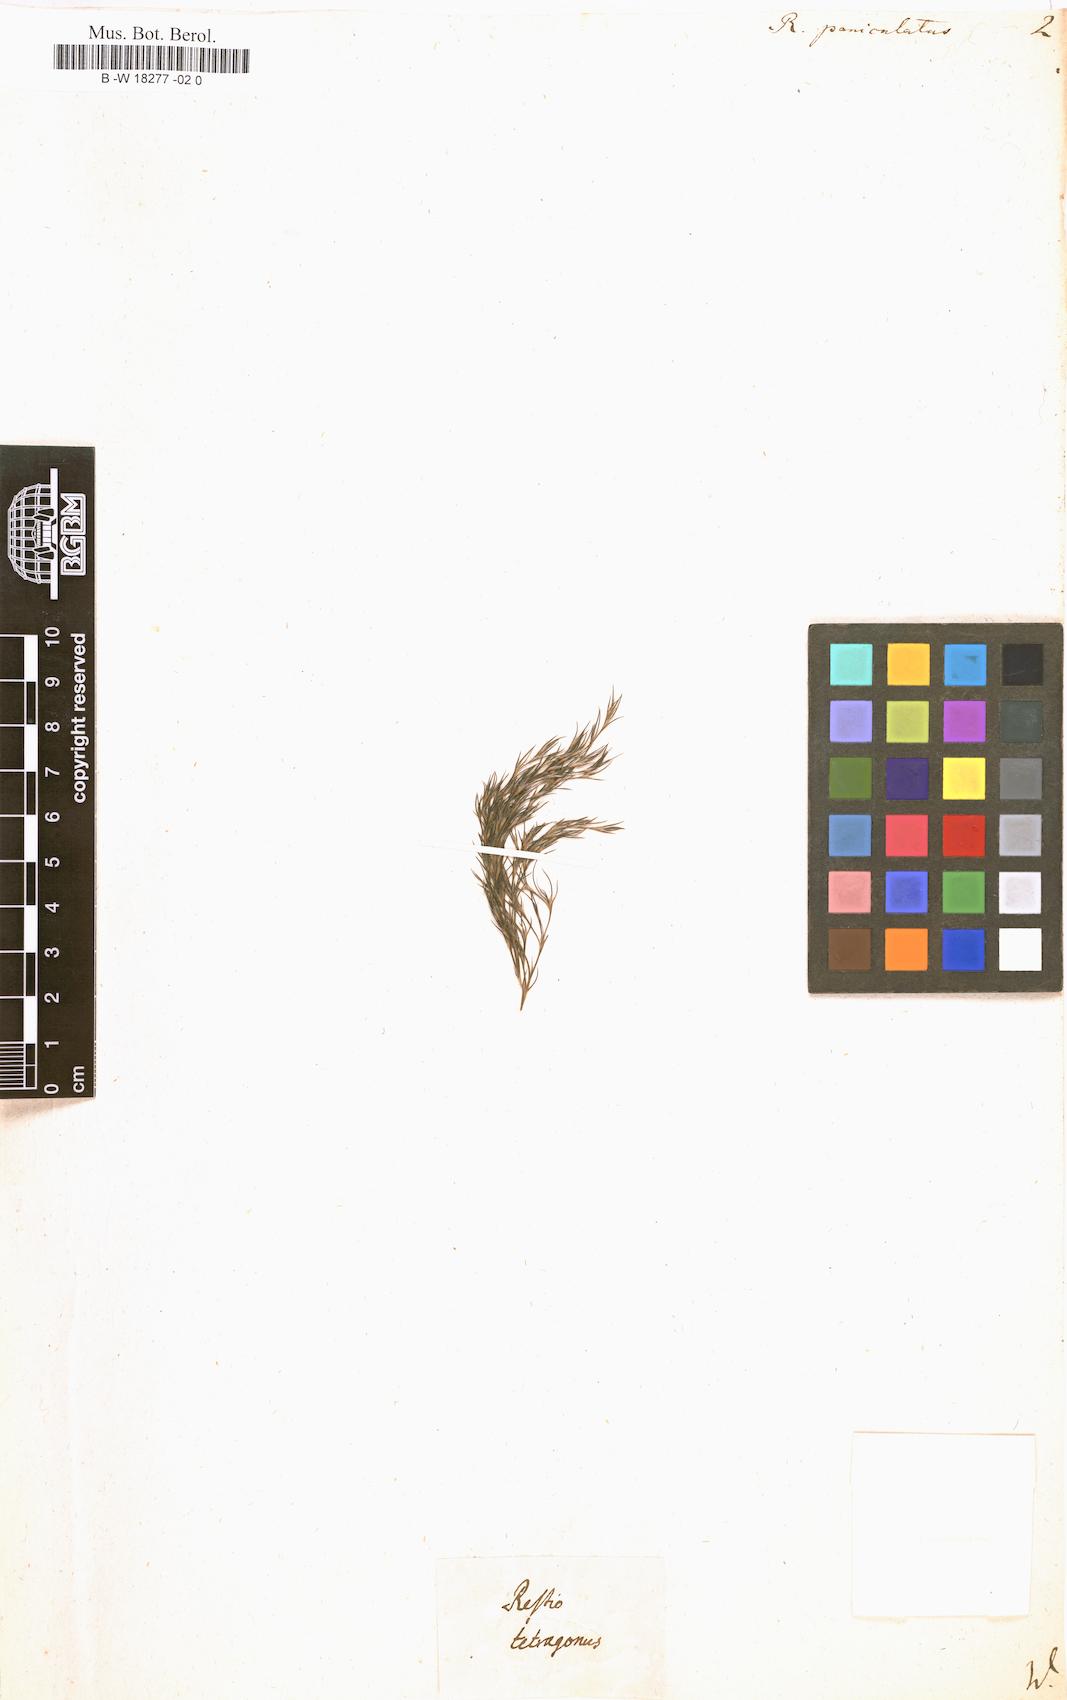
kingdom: Plantae
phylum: Tracheophyta
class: Liliopsida
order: Poales
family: Restionaceae
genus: Restio
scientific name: Restio paniculatus
